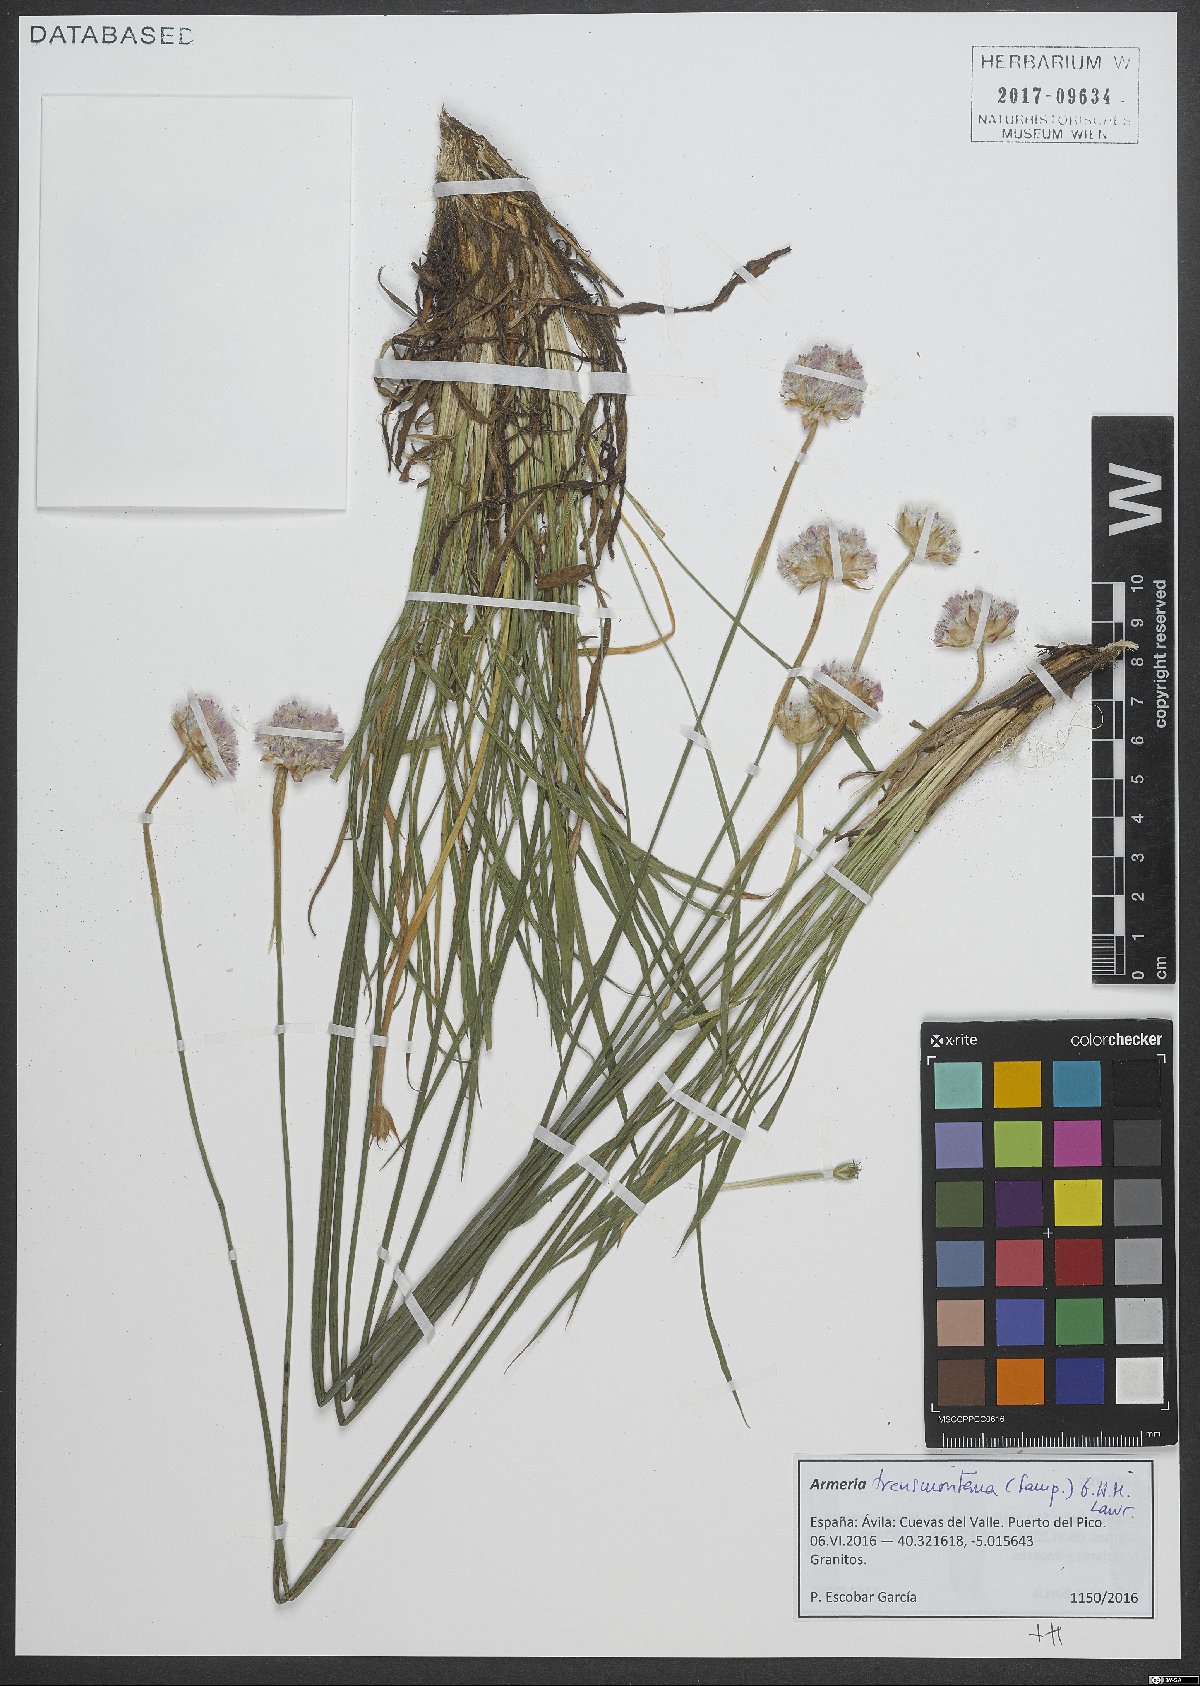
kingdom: Plantae
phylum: Tracheophyta
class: Magnoliopsida
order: Caryophyllales
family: Plumbaginaceae
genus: Armeria
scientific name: Armeria transmontana
